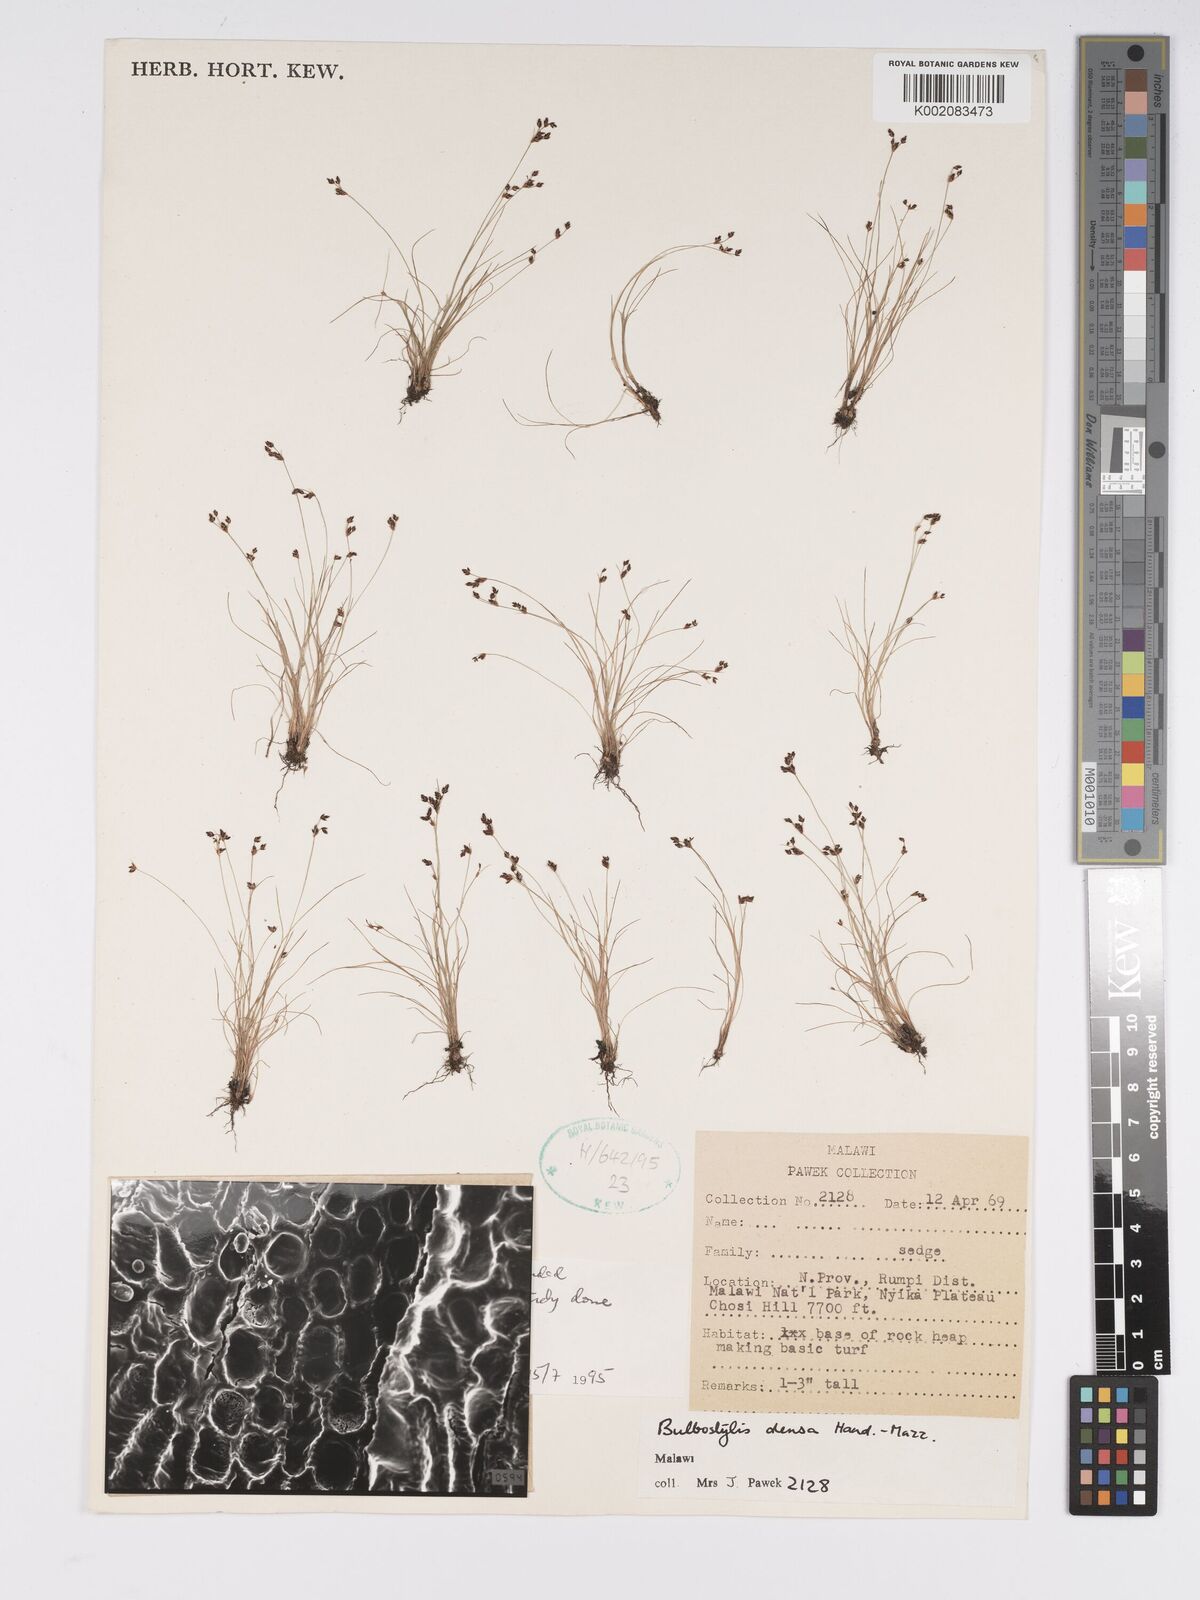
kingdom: Plantae
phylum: Tracheophyta
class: Liliopsida
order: Poales
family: Cyperaceae
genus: Bulbostylis
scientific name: Bulbostylis densa
